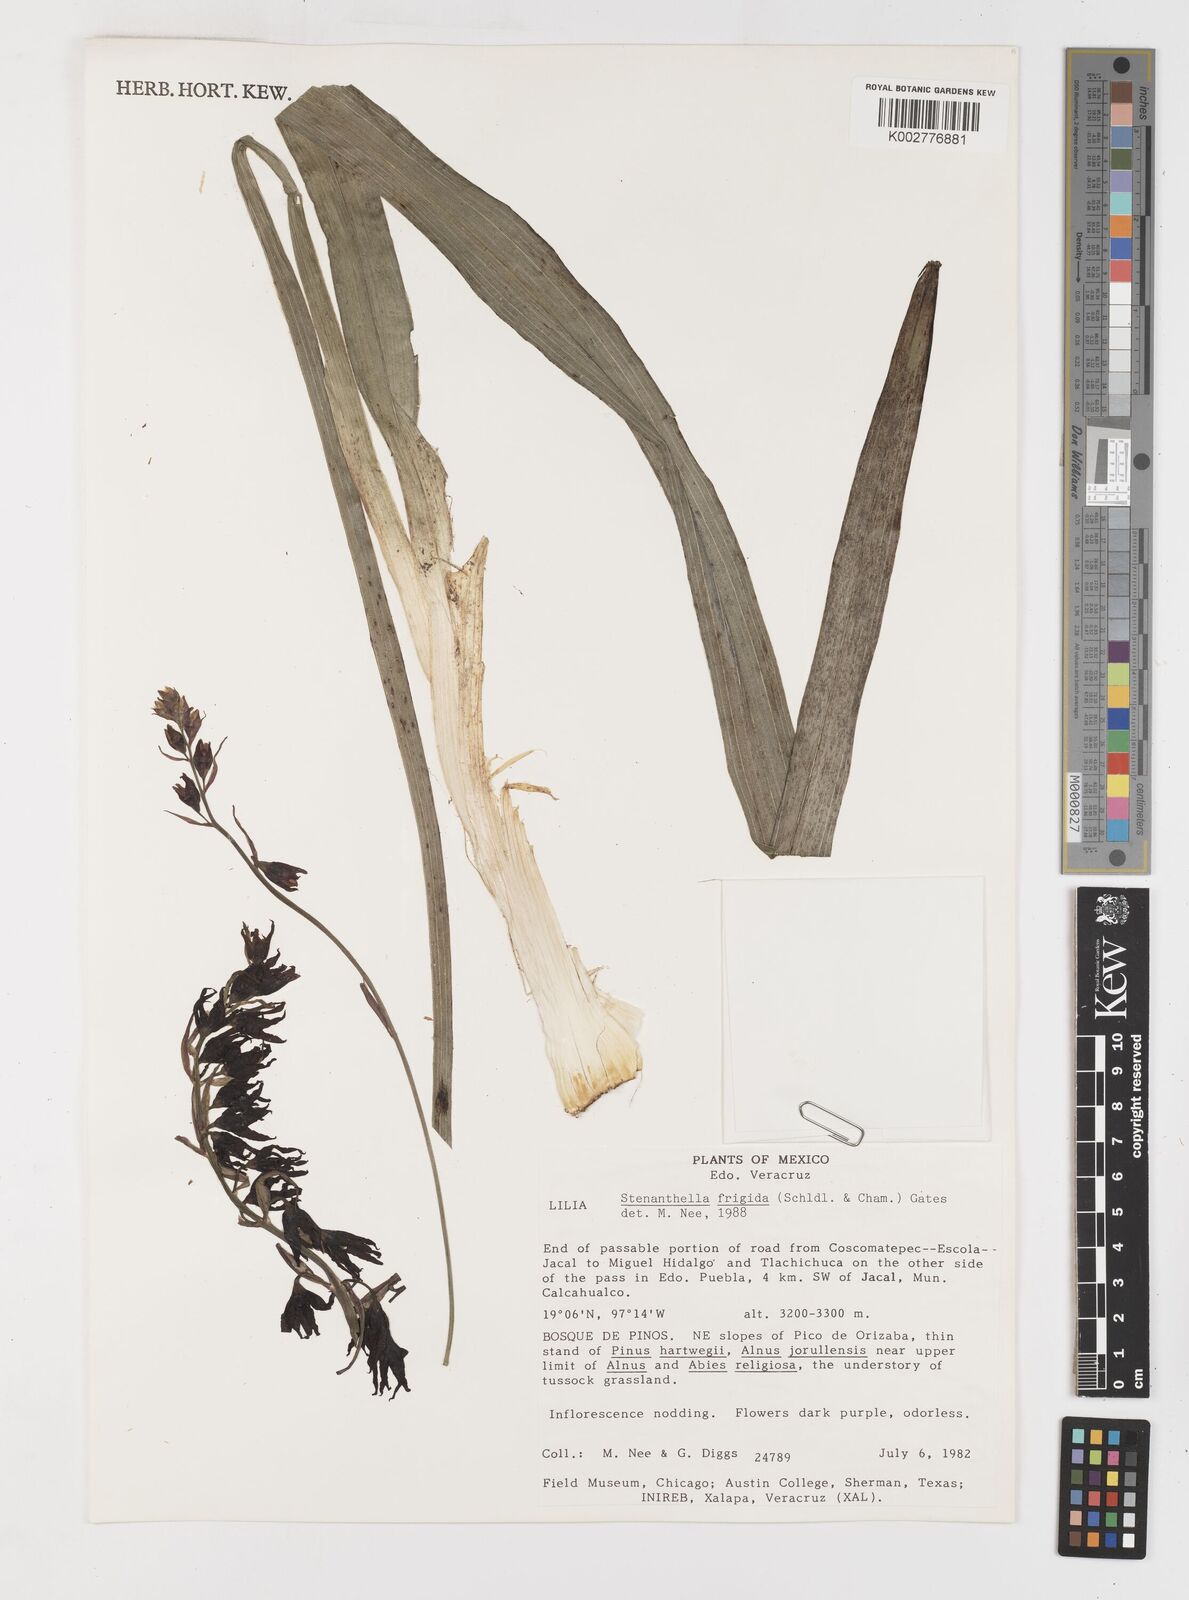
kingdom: Plantae
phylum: Tracheophyta
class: Liliopsida
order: Liliales
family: Melanthiaceae
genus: Anticlea
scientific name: Anticlea frigida
